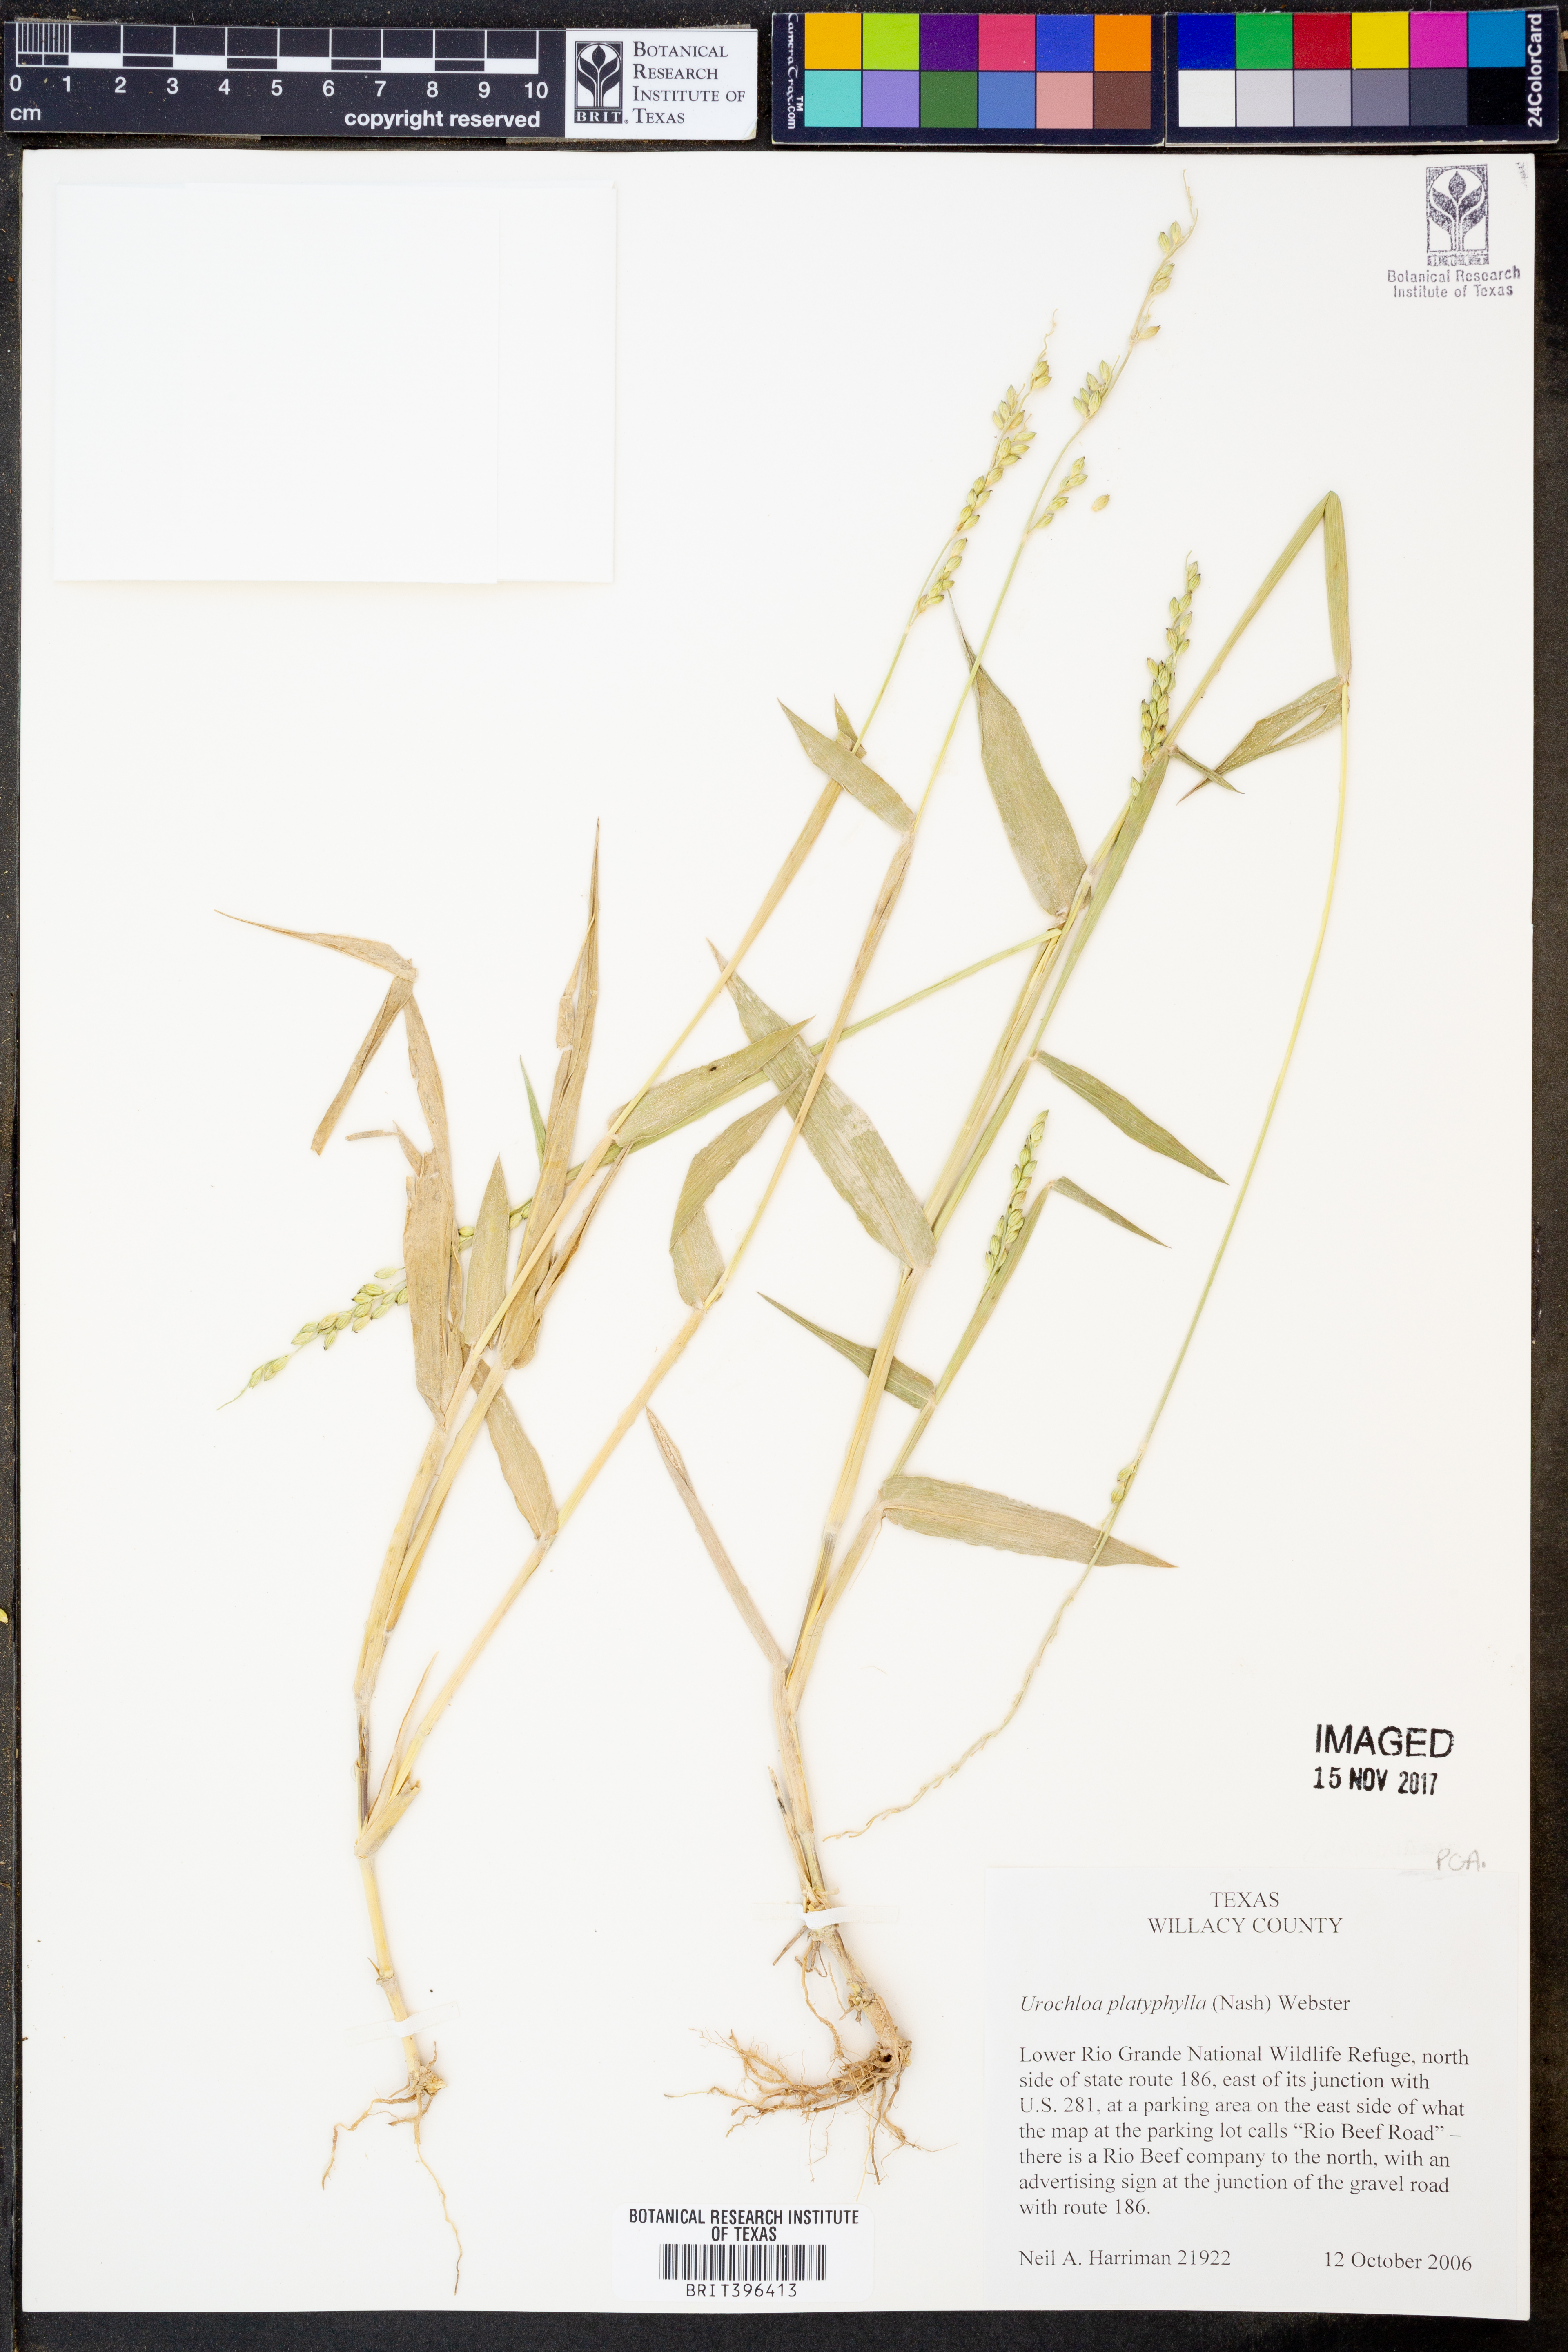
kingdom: Plantae
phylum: Tracheophyta
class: Liliopsida
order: Poales
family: Poaceae
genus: Urochloa
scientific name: Urochloa platyphylla
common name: White para grass
